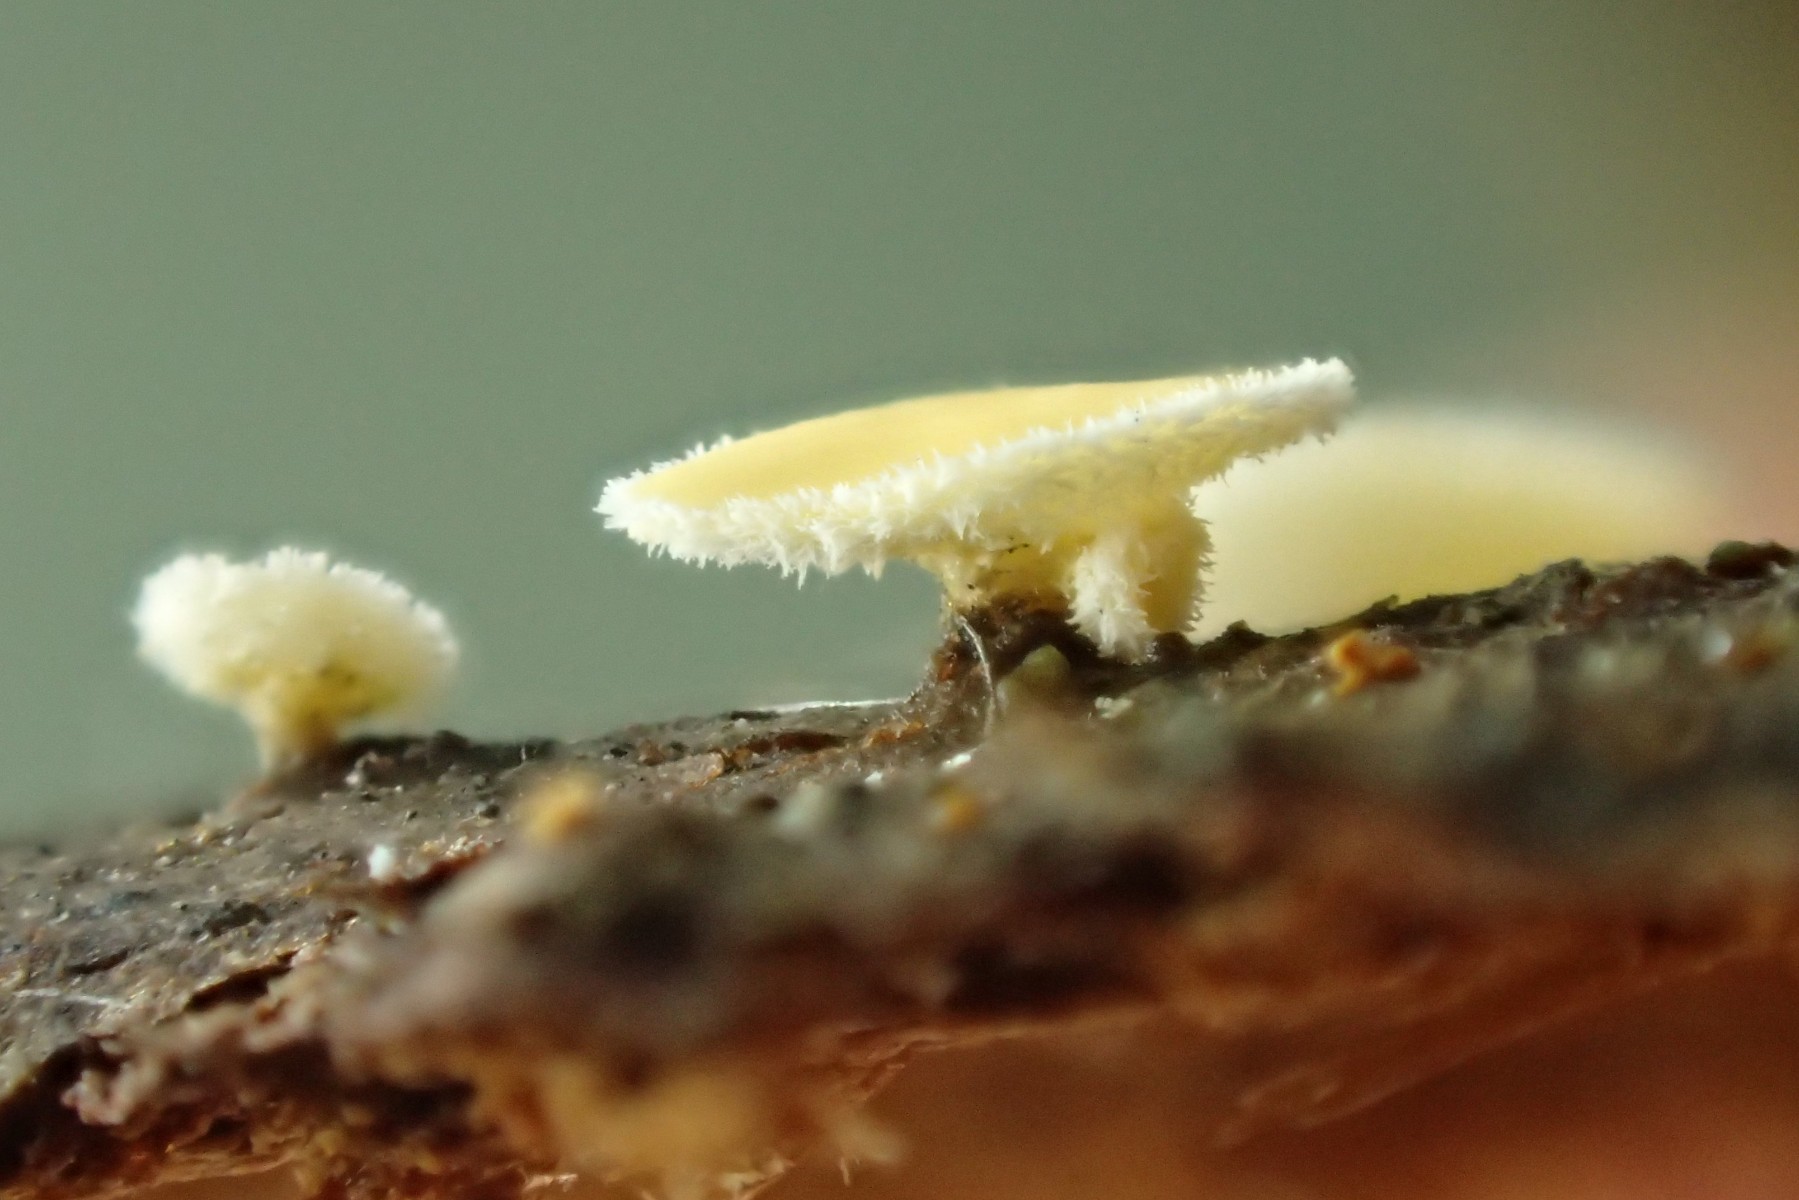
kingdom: Fungi
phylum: Ascomycota
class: Leotiomycetes
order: Helotiales
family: Lachnaceae
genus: Lachnellula
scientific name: Lachnellula calyciformis
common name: ædelgran-frynseskive
